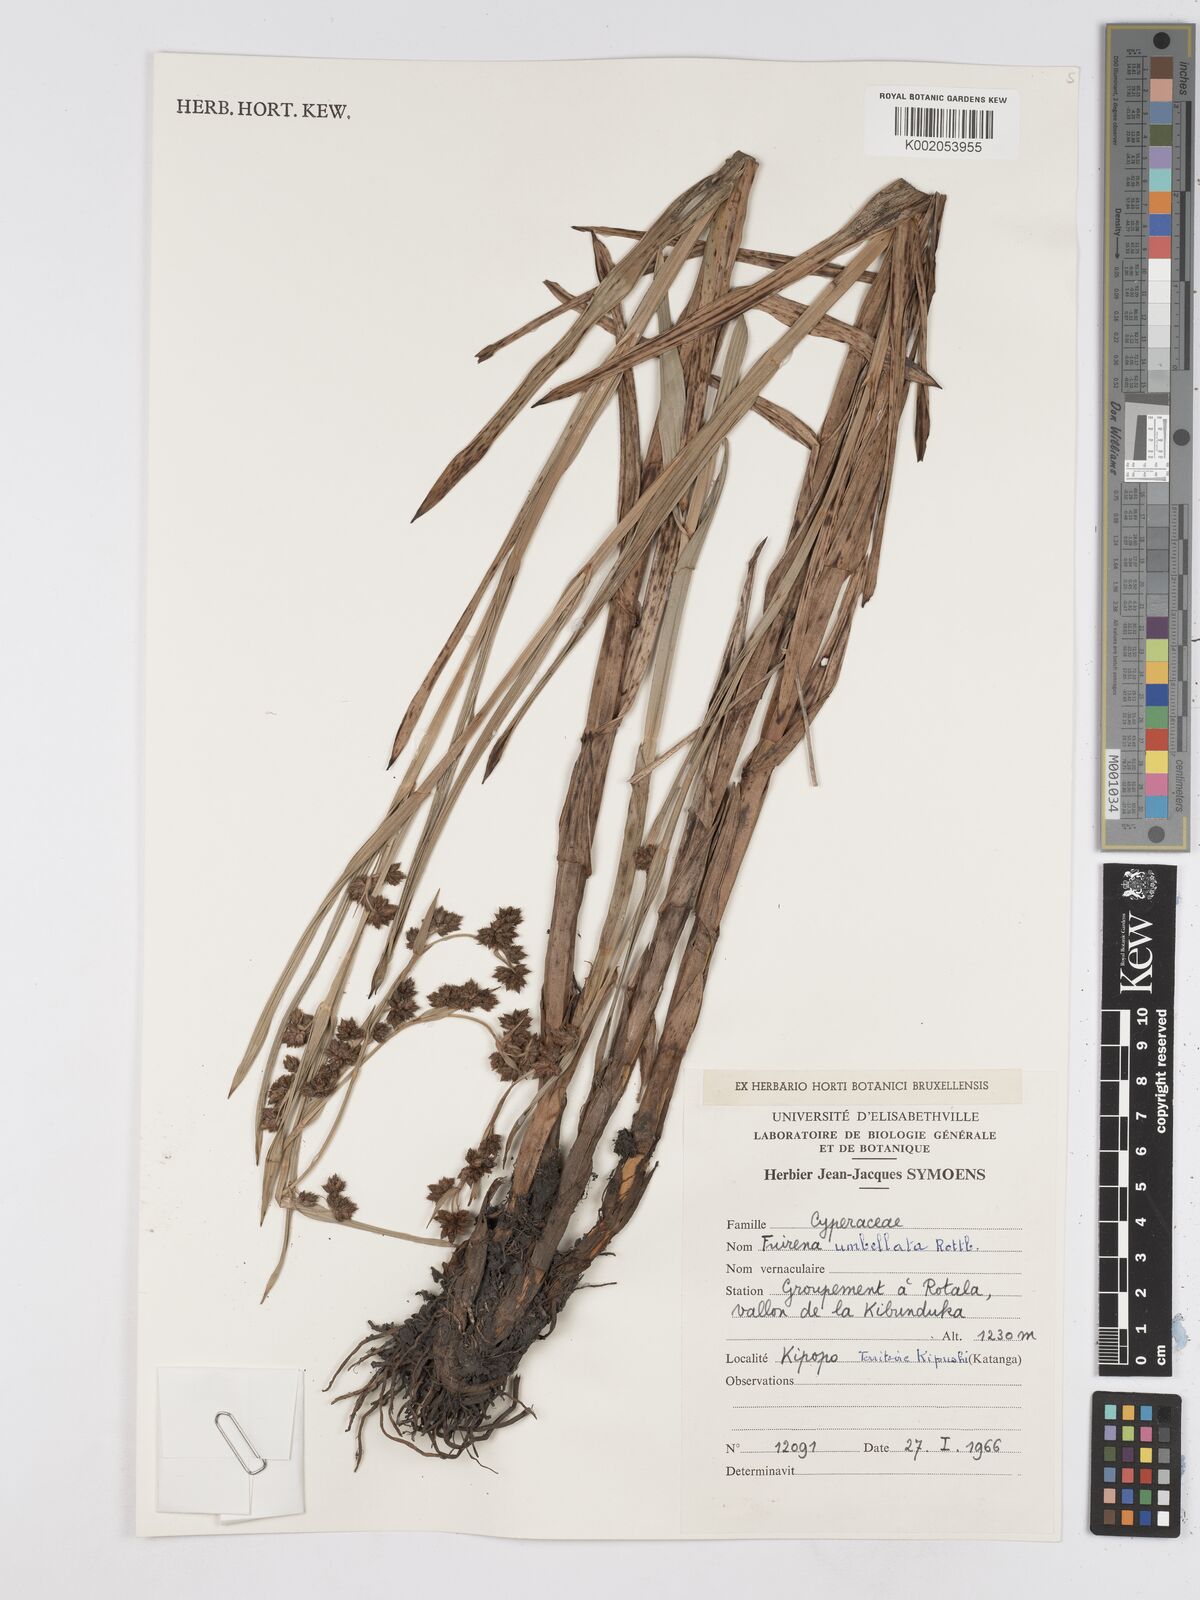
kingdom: Plantae
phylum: Tracheophyta
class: Liliopsida
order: Poales
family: Cyperaceae
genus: Fuirena
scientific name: Fuirena umbellata
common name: Yefen
